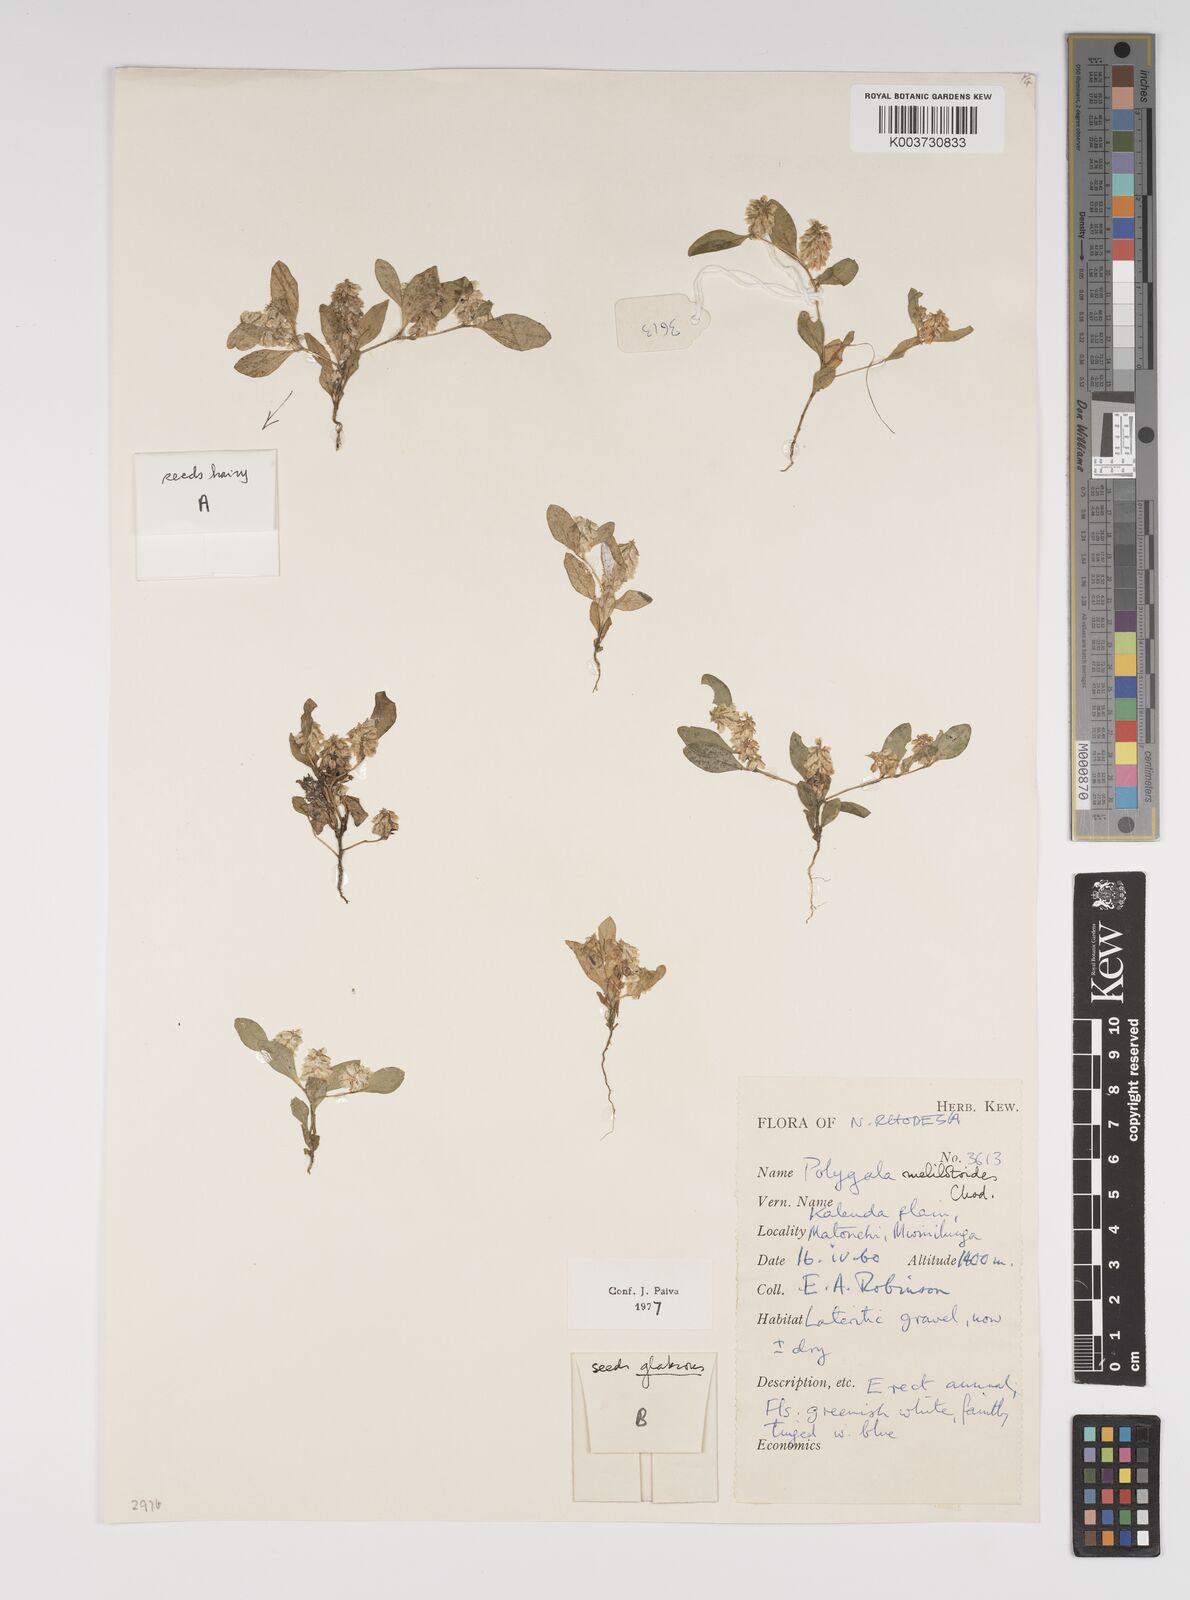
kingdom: Plantae
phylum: Tracheophyta
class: Magnoliopsida
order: Fabales
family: Polygalaceae
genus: Polygala
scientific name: Polygala melilotoides
